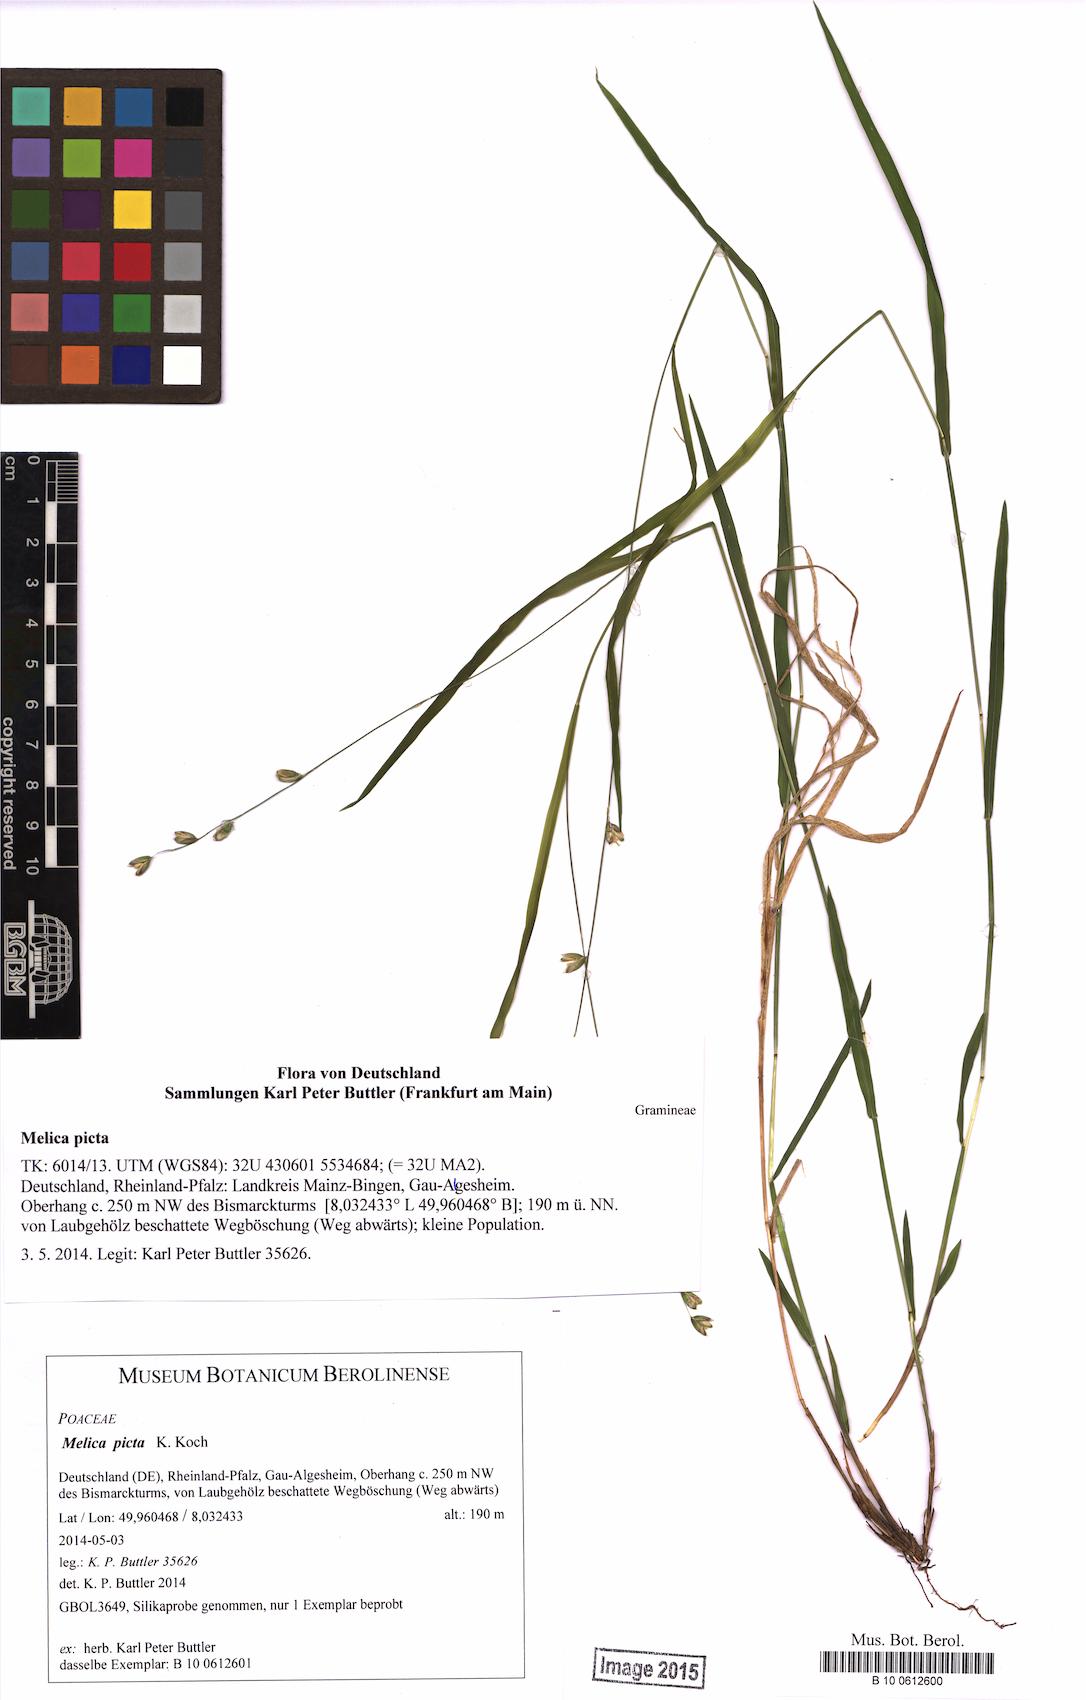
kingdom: Plantae
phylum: Tracheophyta
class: Liliopsida
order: Poales
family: Poaceae
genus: Melica
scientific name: Melica picta
